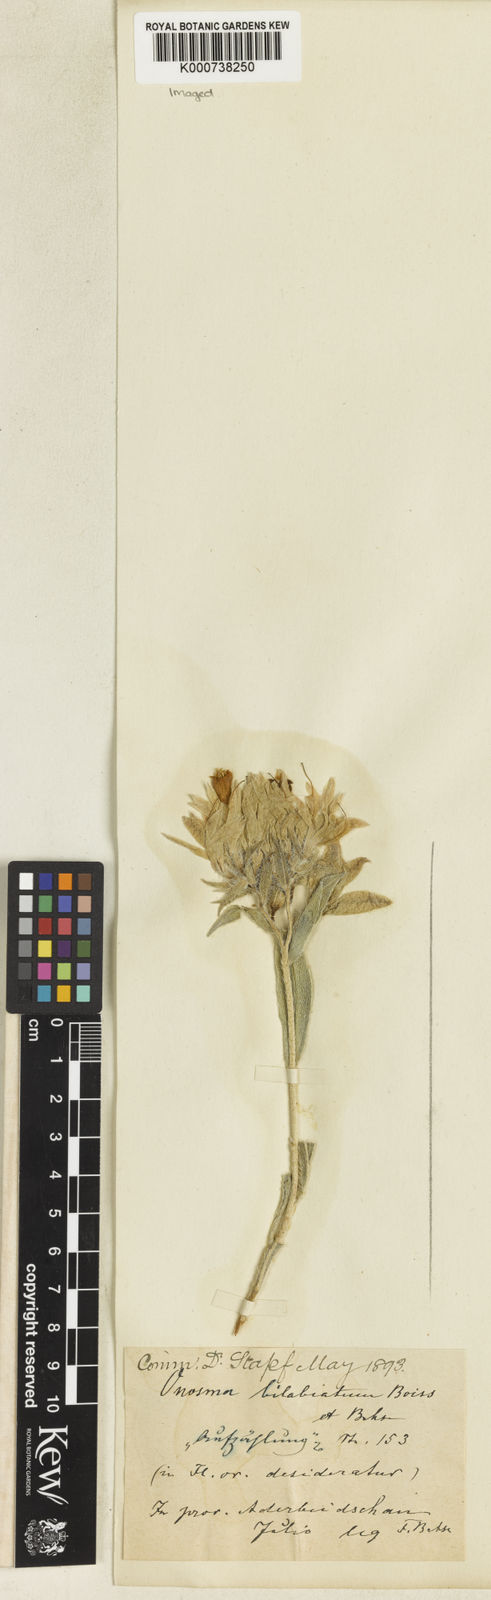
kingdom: Plantae
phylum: Tracheophyta
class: Magnoliopsida
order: Boraginales
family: Boraginaceae
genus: Onosma
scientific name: Onosma bilabiata
